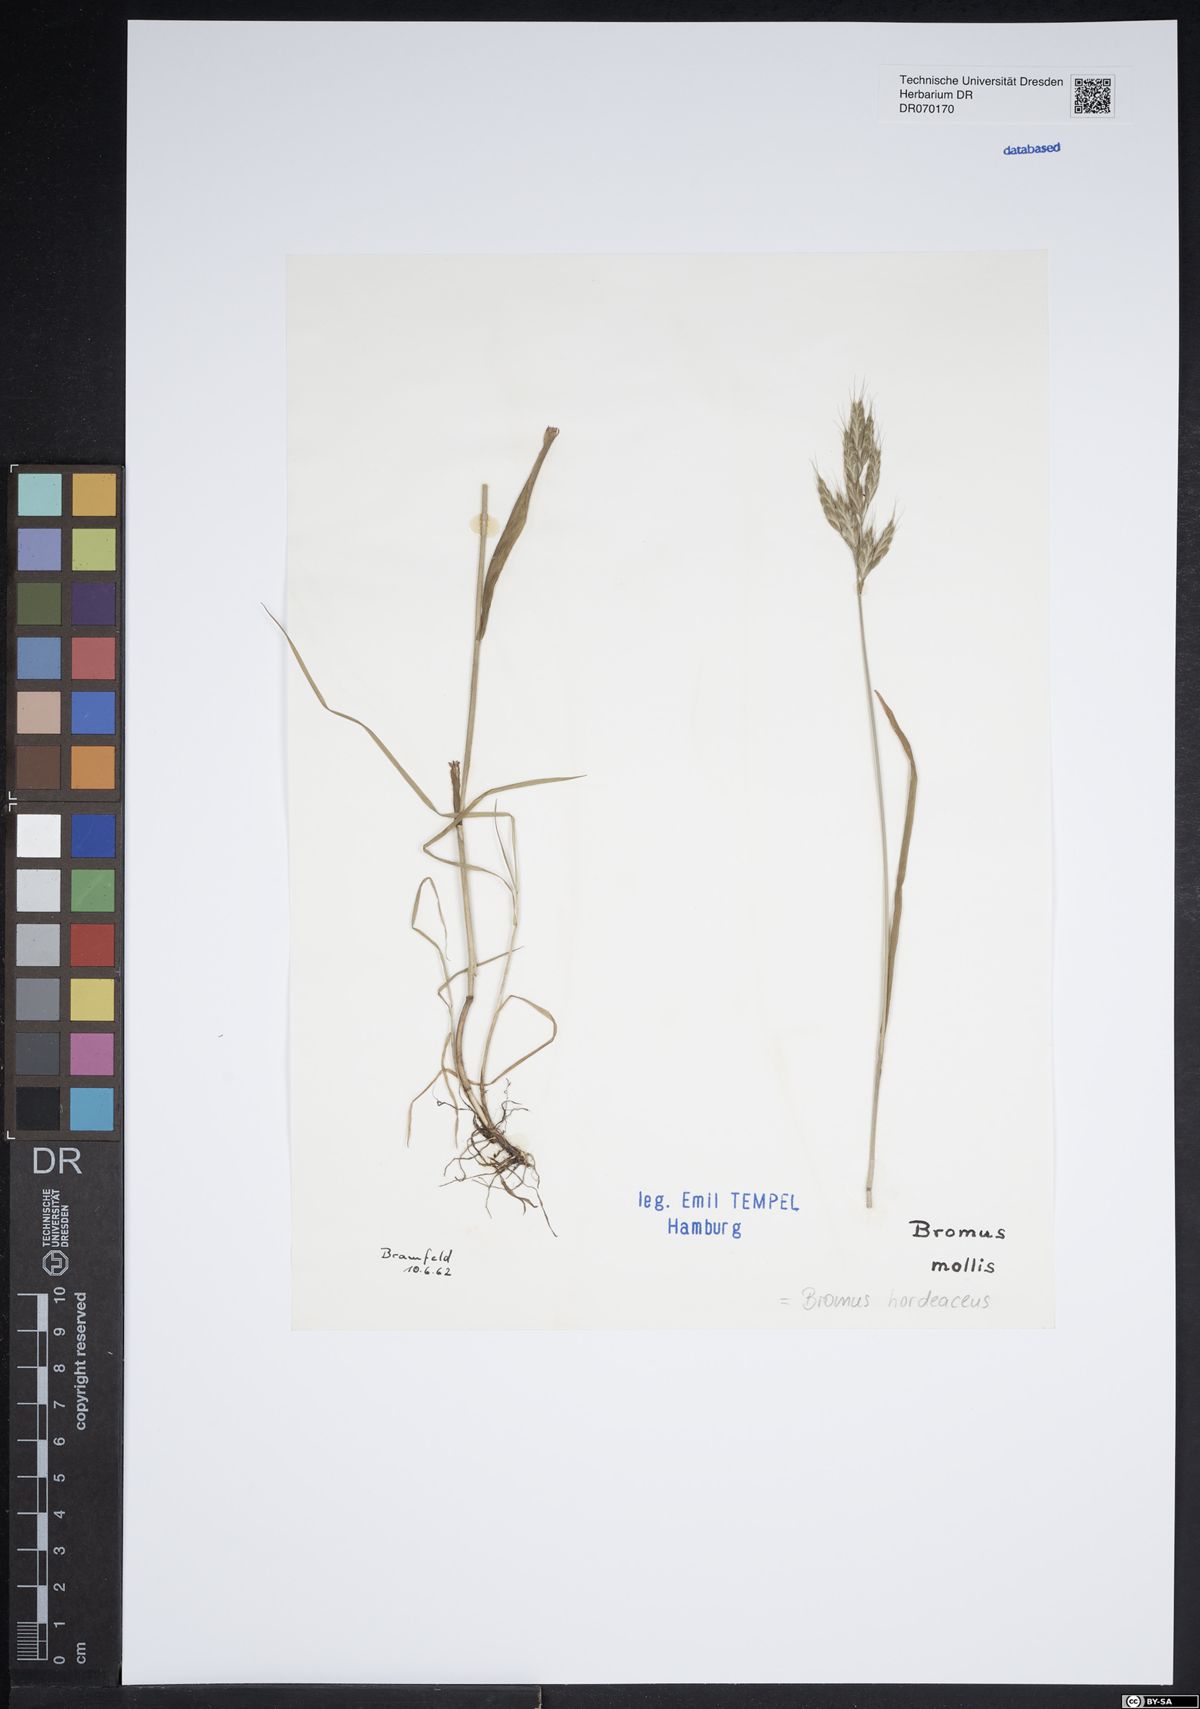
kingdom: Plantae
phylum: Tracheophyta
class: Liliopsida
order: Poales
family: Poaceae
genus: Bromus
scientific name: Bromus hordeaceus
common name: Soft brome
